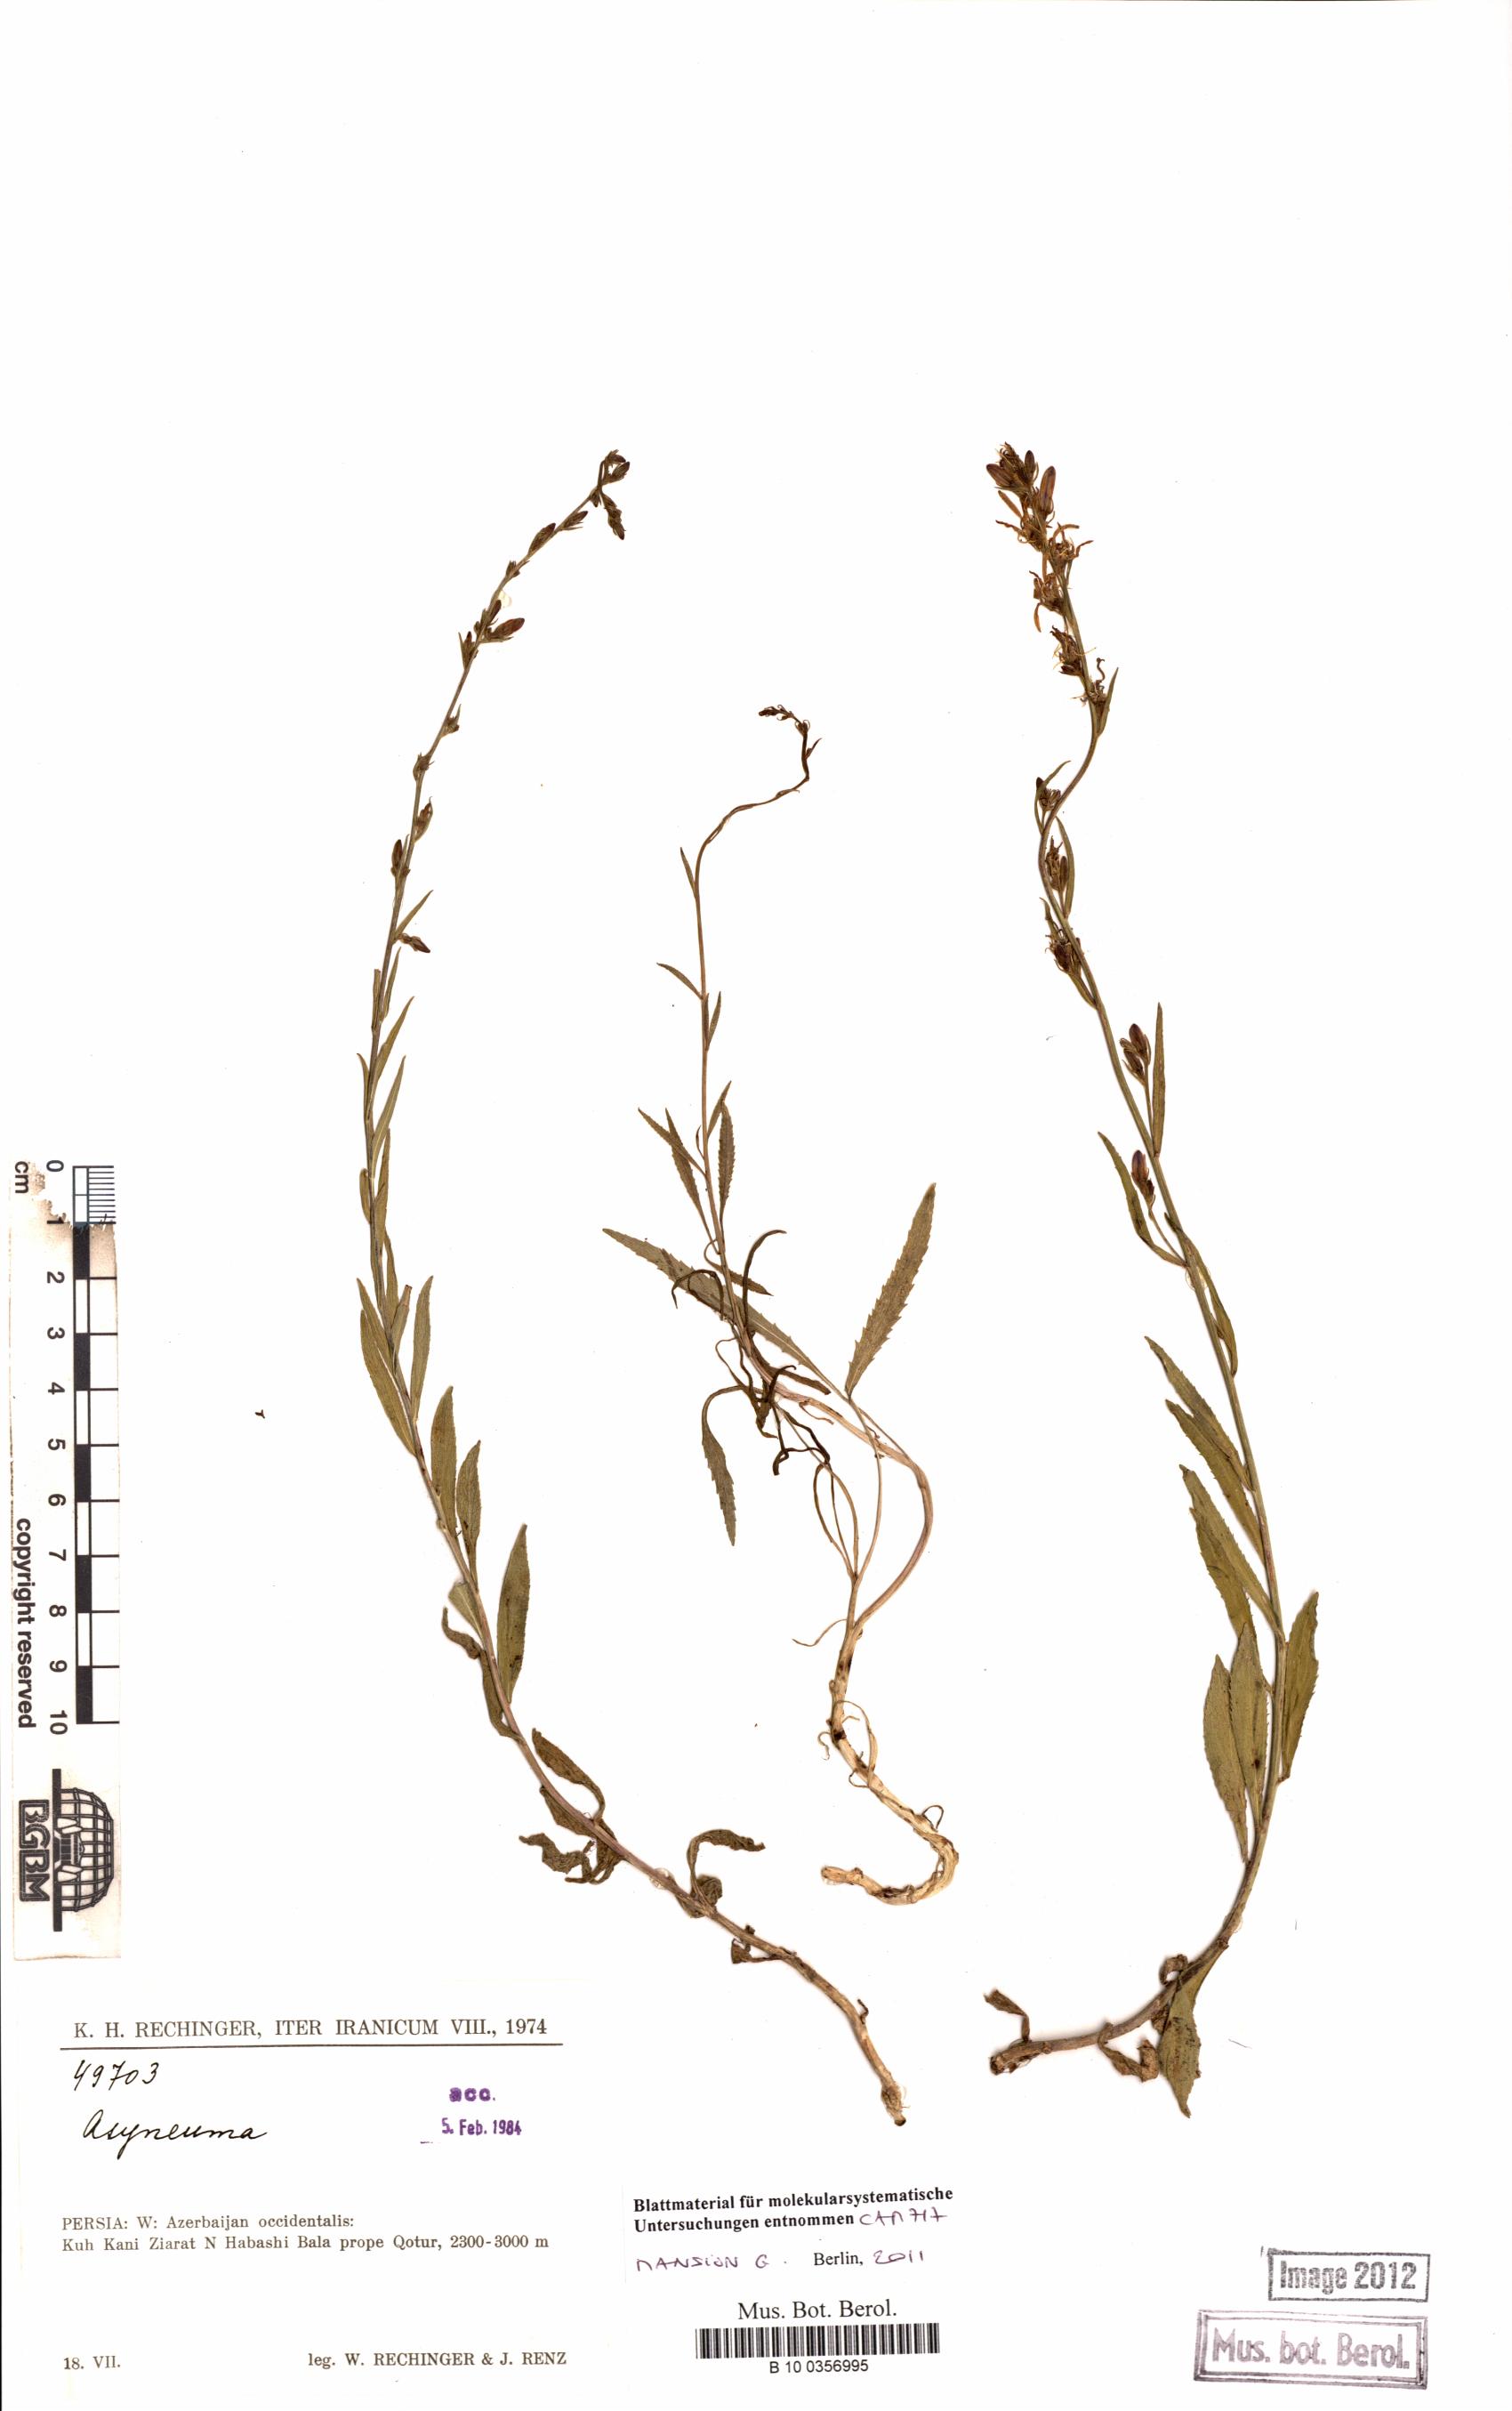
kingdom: Plantae
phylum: Tracheophyta
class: Magnoliopsida
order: Asterales
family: Campanulaceae
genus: Asyneuma
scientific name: Asyneuma
